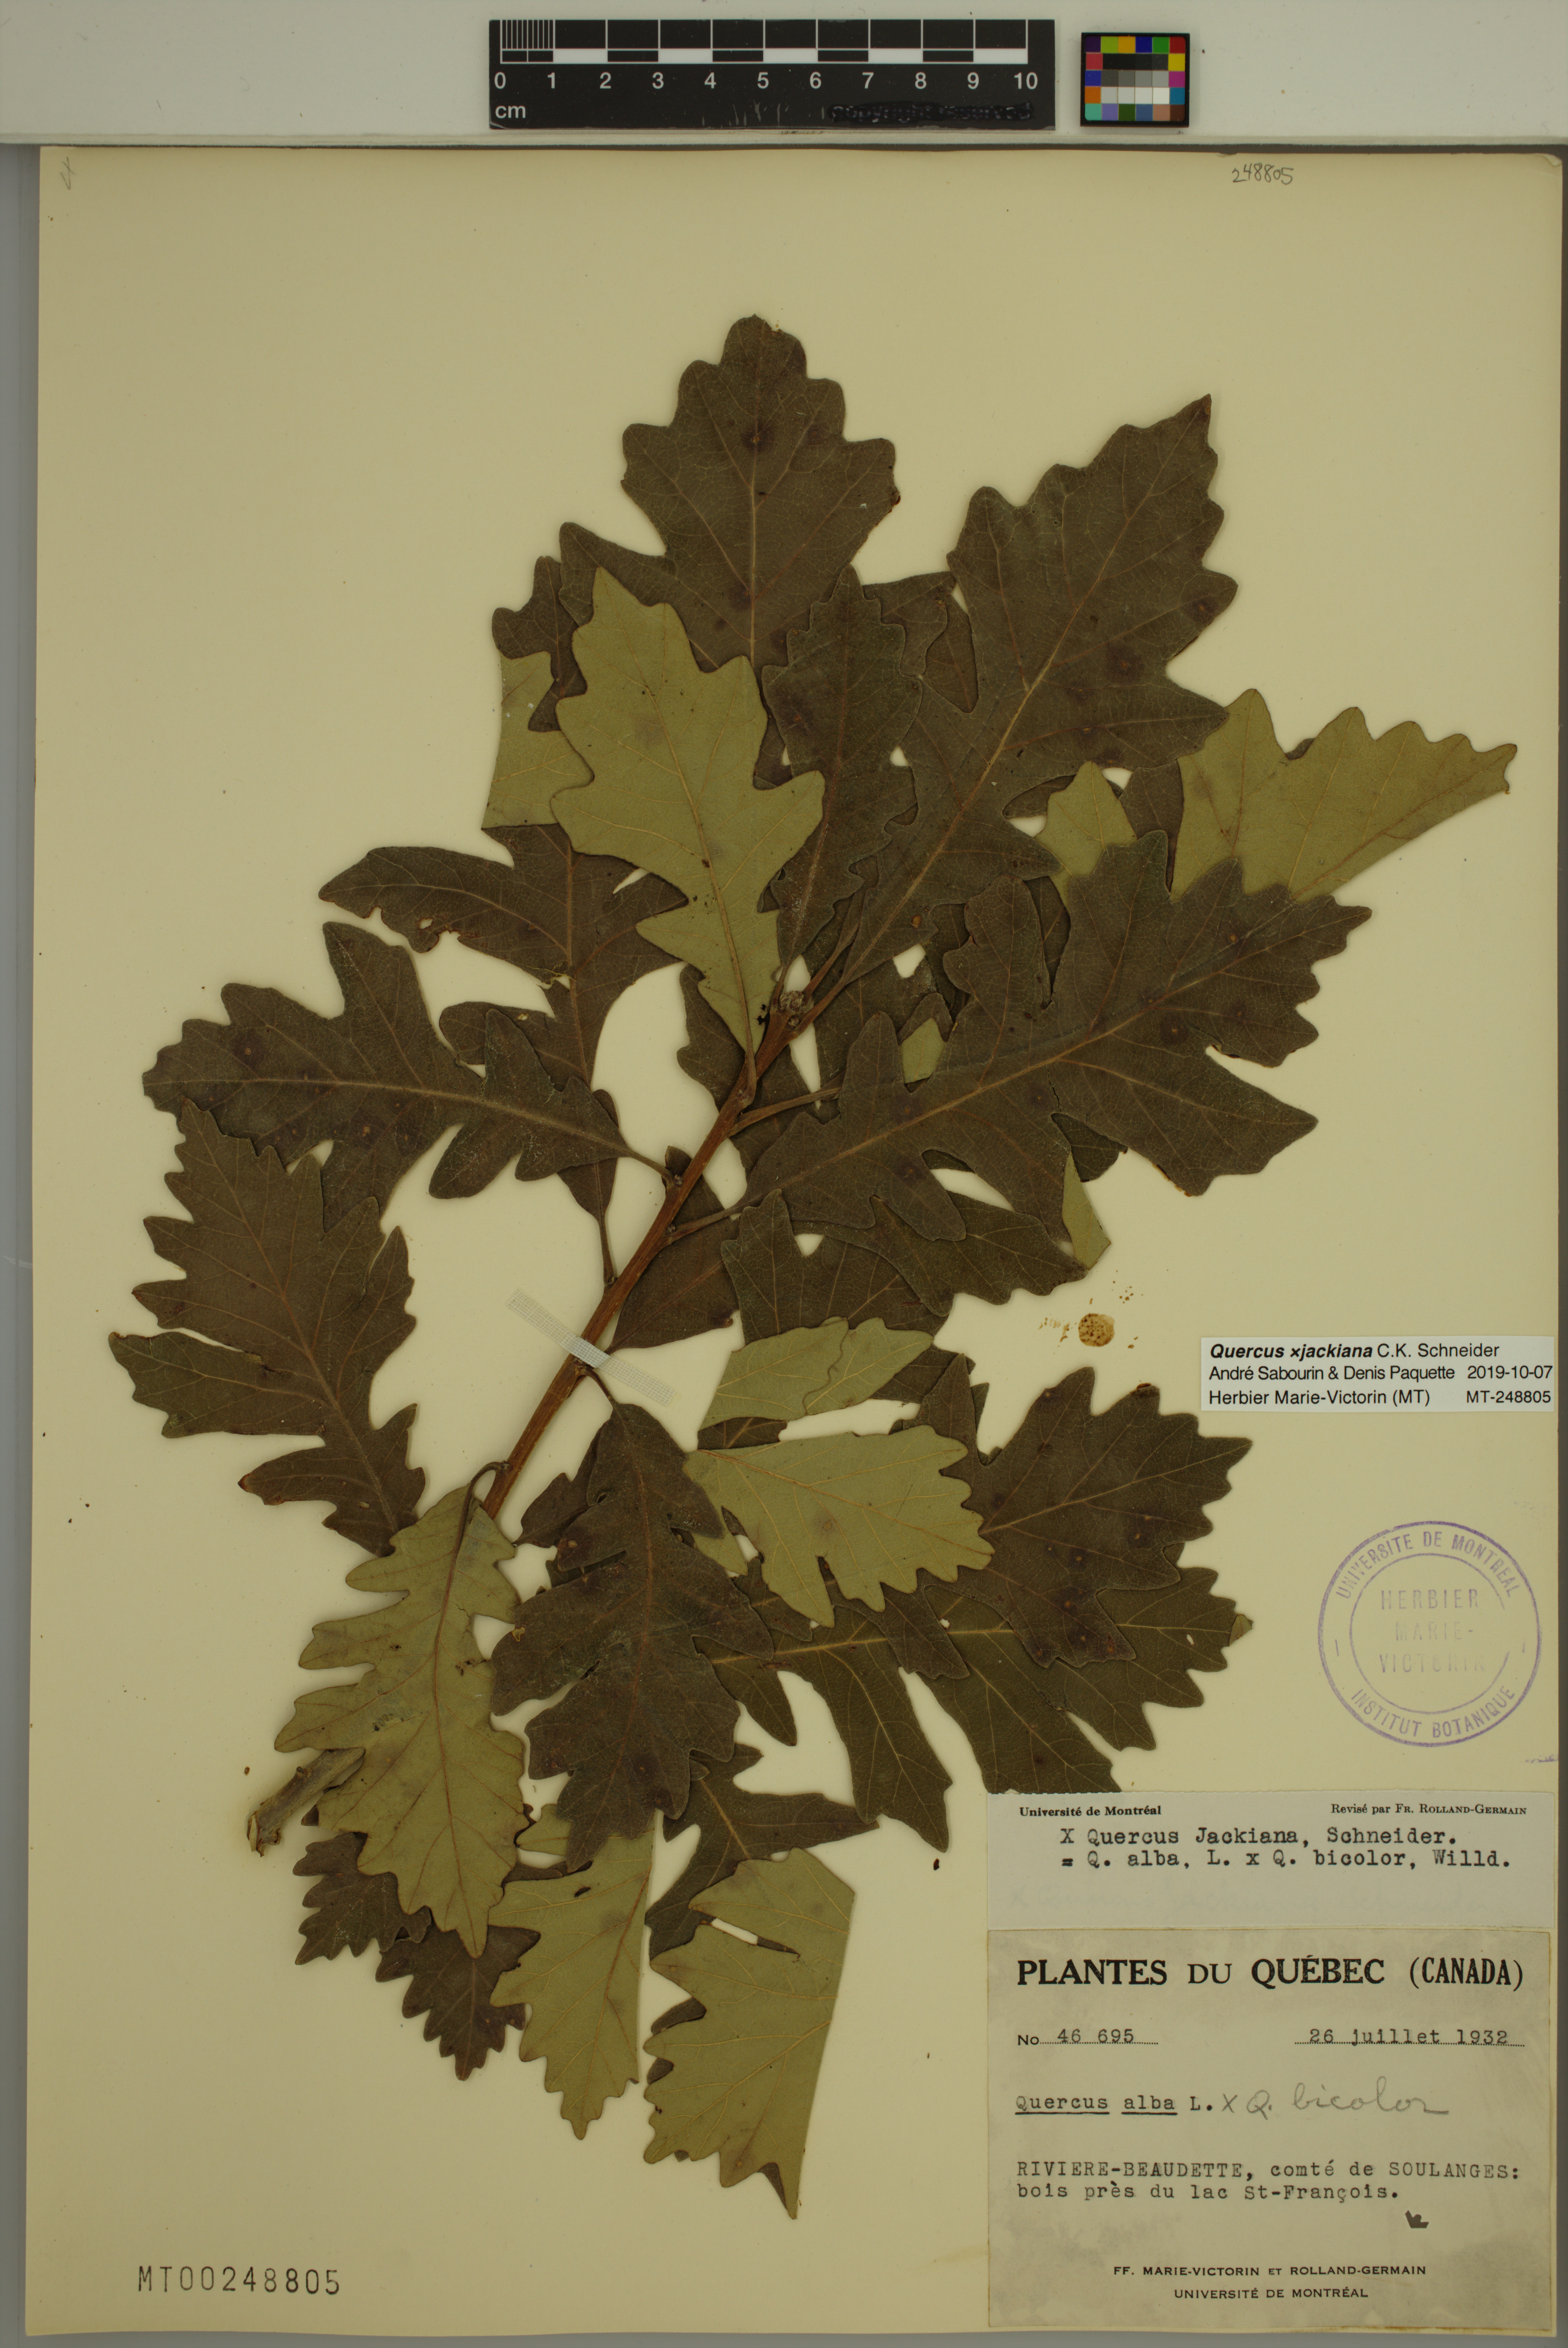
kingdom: Plantae
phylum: Tracheophyta
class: Magnoliopsida
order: Fagales
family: Fagaceae
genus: Quercus
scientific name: Quercus jackiana
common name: Jack's oak
